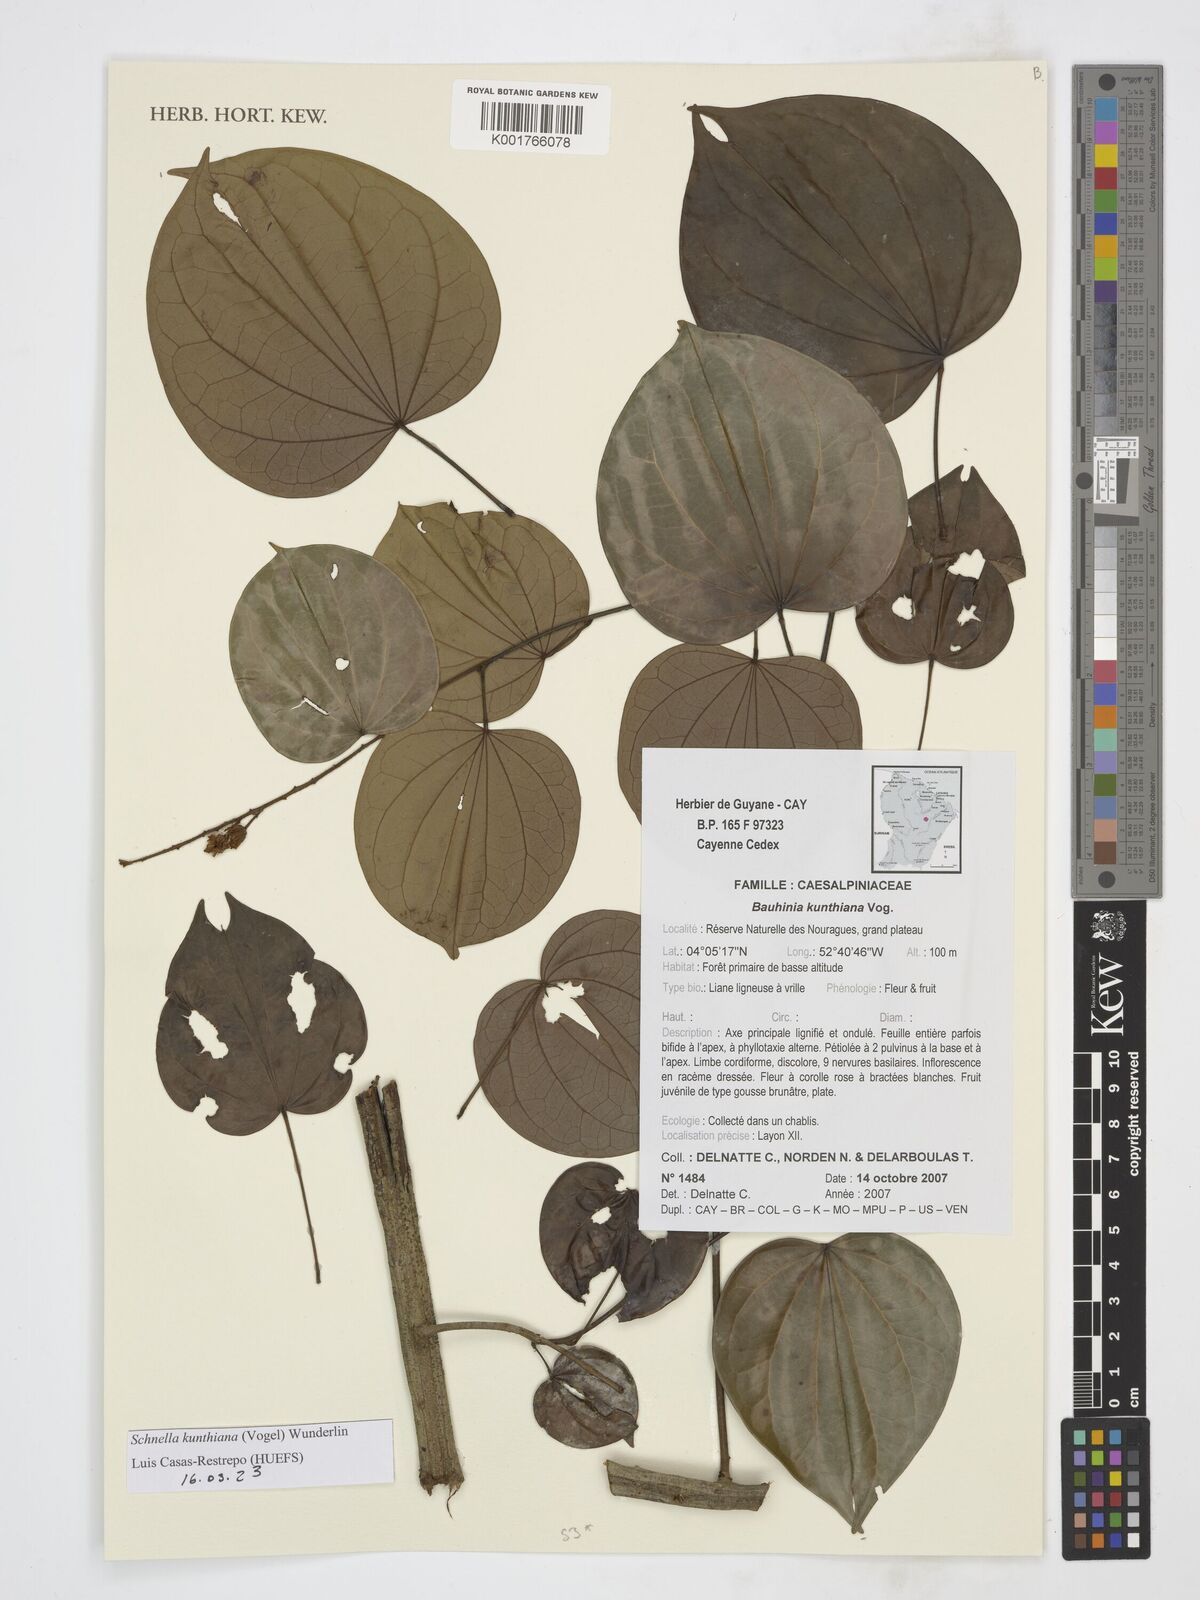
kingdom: Plantae
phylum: Tracheophyta
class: Magnoliopsida
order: Fabales
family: Fabaceae
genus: Schnella
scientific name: Schnella kunthiana
